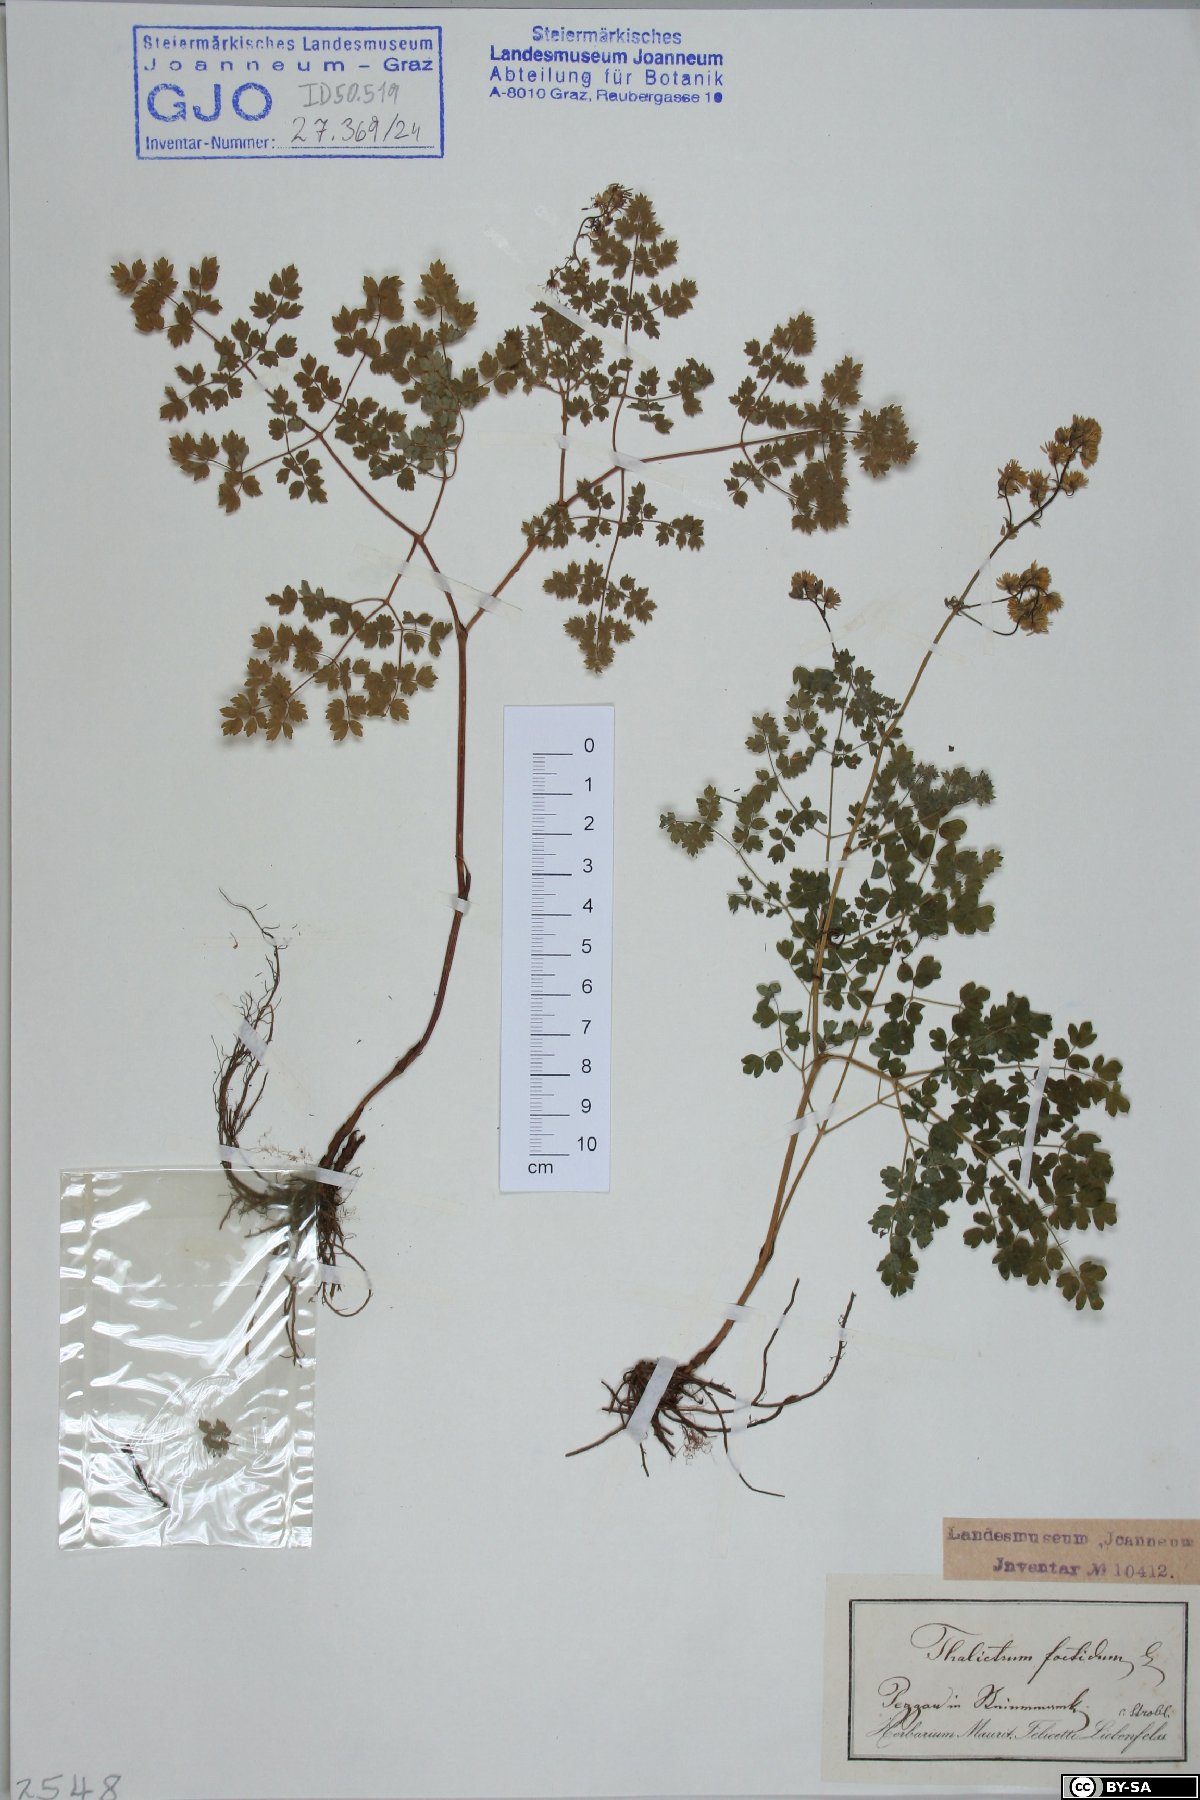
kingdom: Plantae
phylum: Tracheophyta
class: Magnoliopsida
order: Ranunculales
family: Ranunculaceae
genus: Thalictrum
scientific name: Thalictrum foetidum
